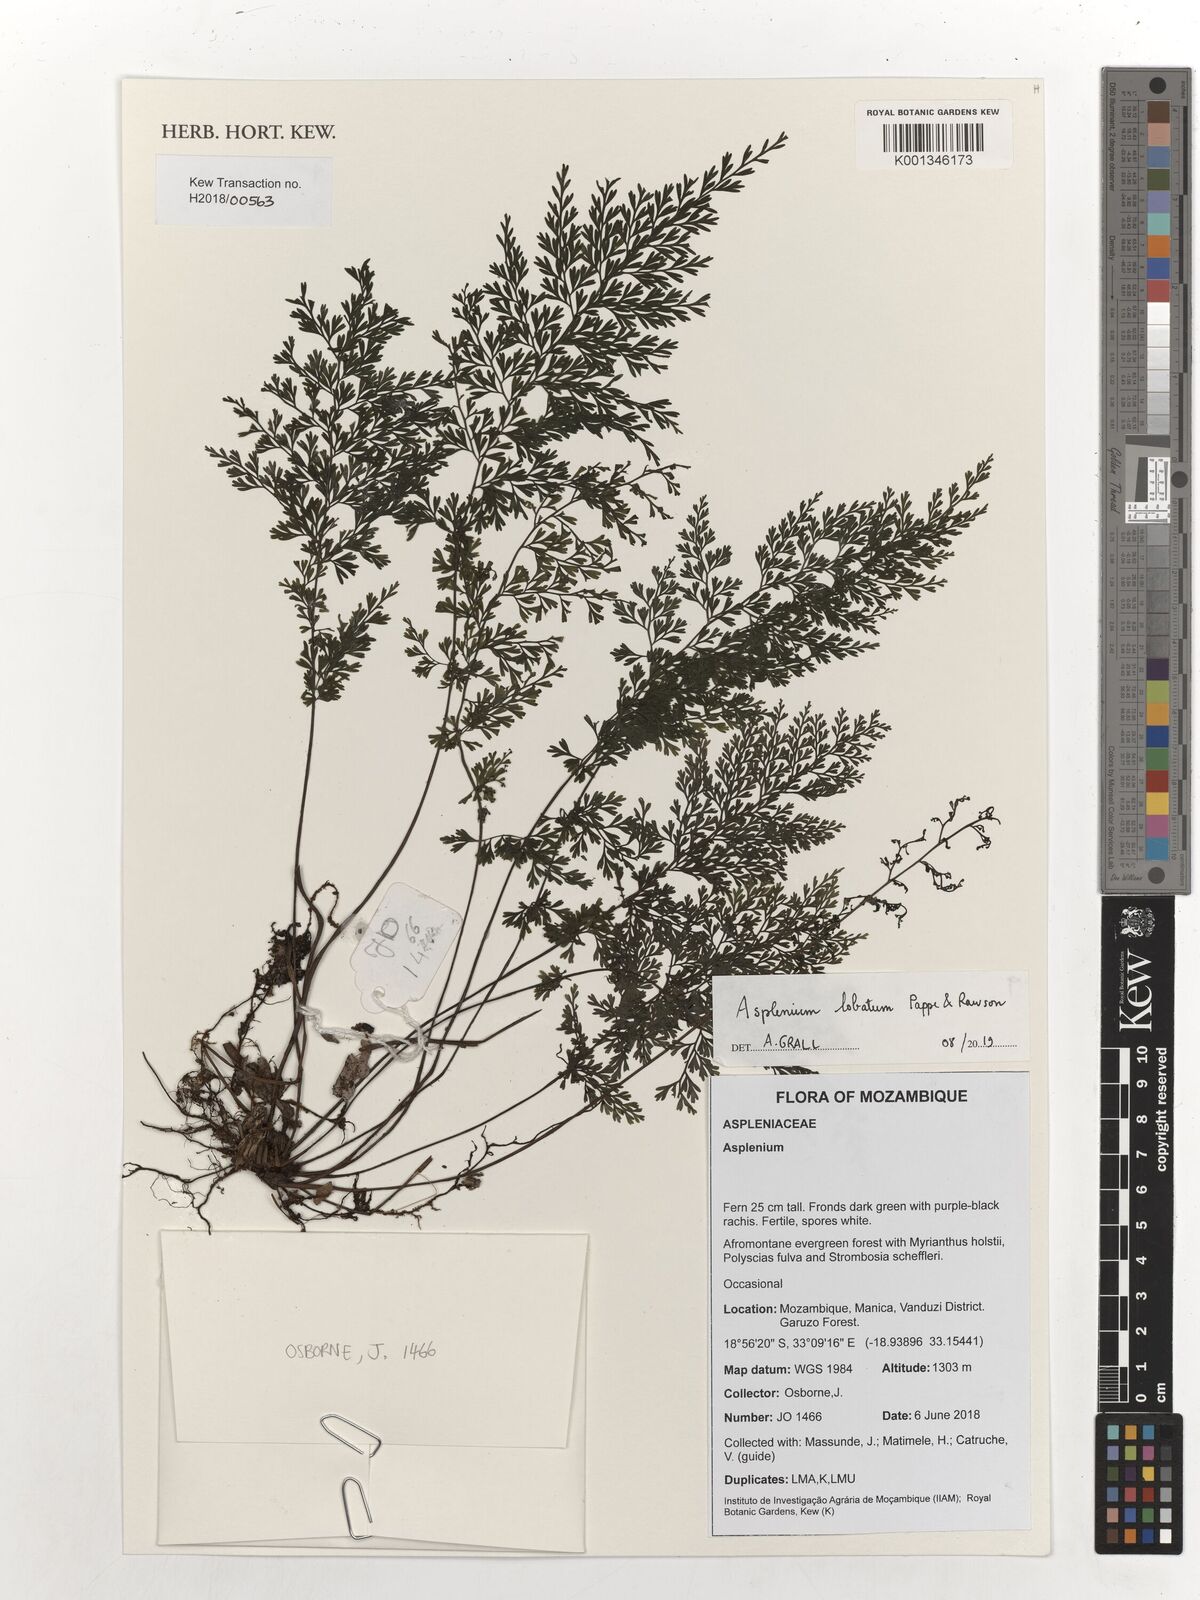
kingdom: Plantae
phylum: Tracheophyta
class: Polypodiopsida
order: Polypodiales
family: Aspleniaceae
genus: Asplenium
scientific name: Asplenium lobatum
